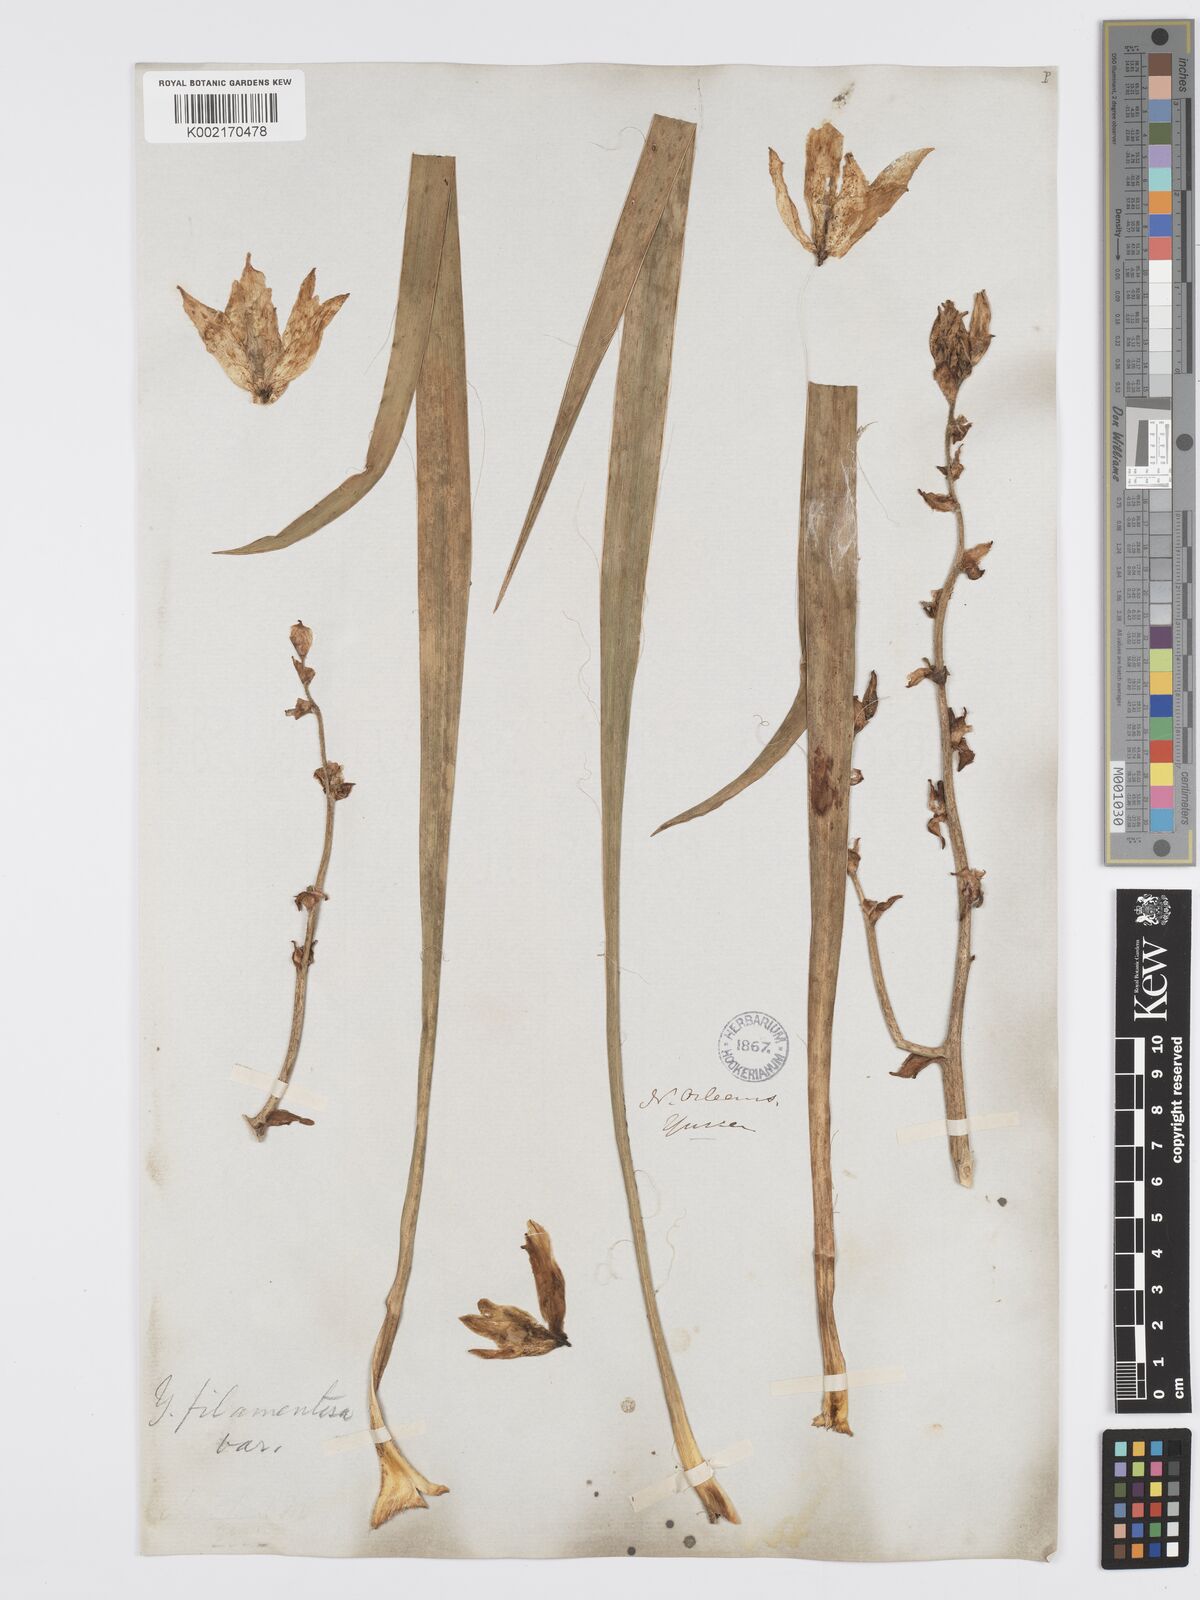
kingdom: Plantae
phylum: Tracheophyta
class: Liliopsida
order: Asparagales
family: Asparagaceae
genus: Yucca
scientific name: Yucca flaccida
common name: Adam's-needle
